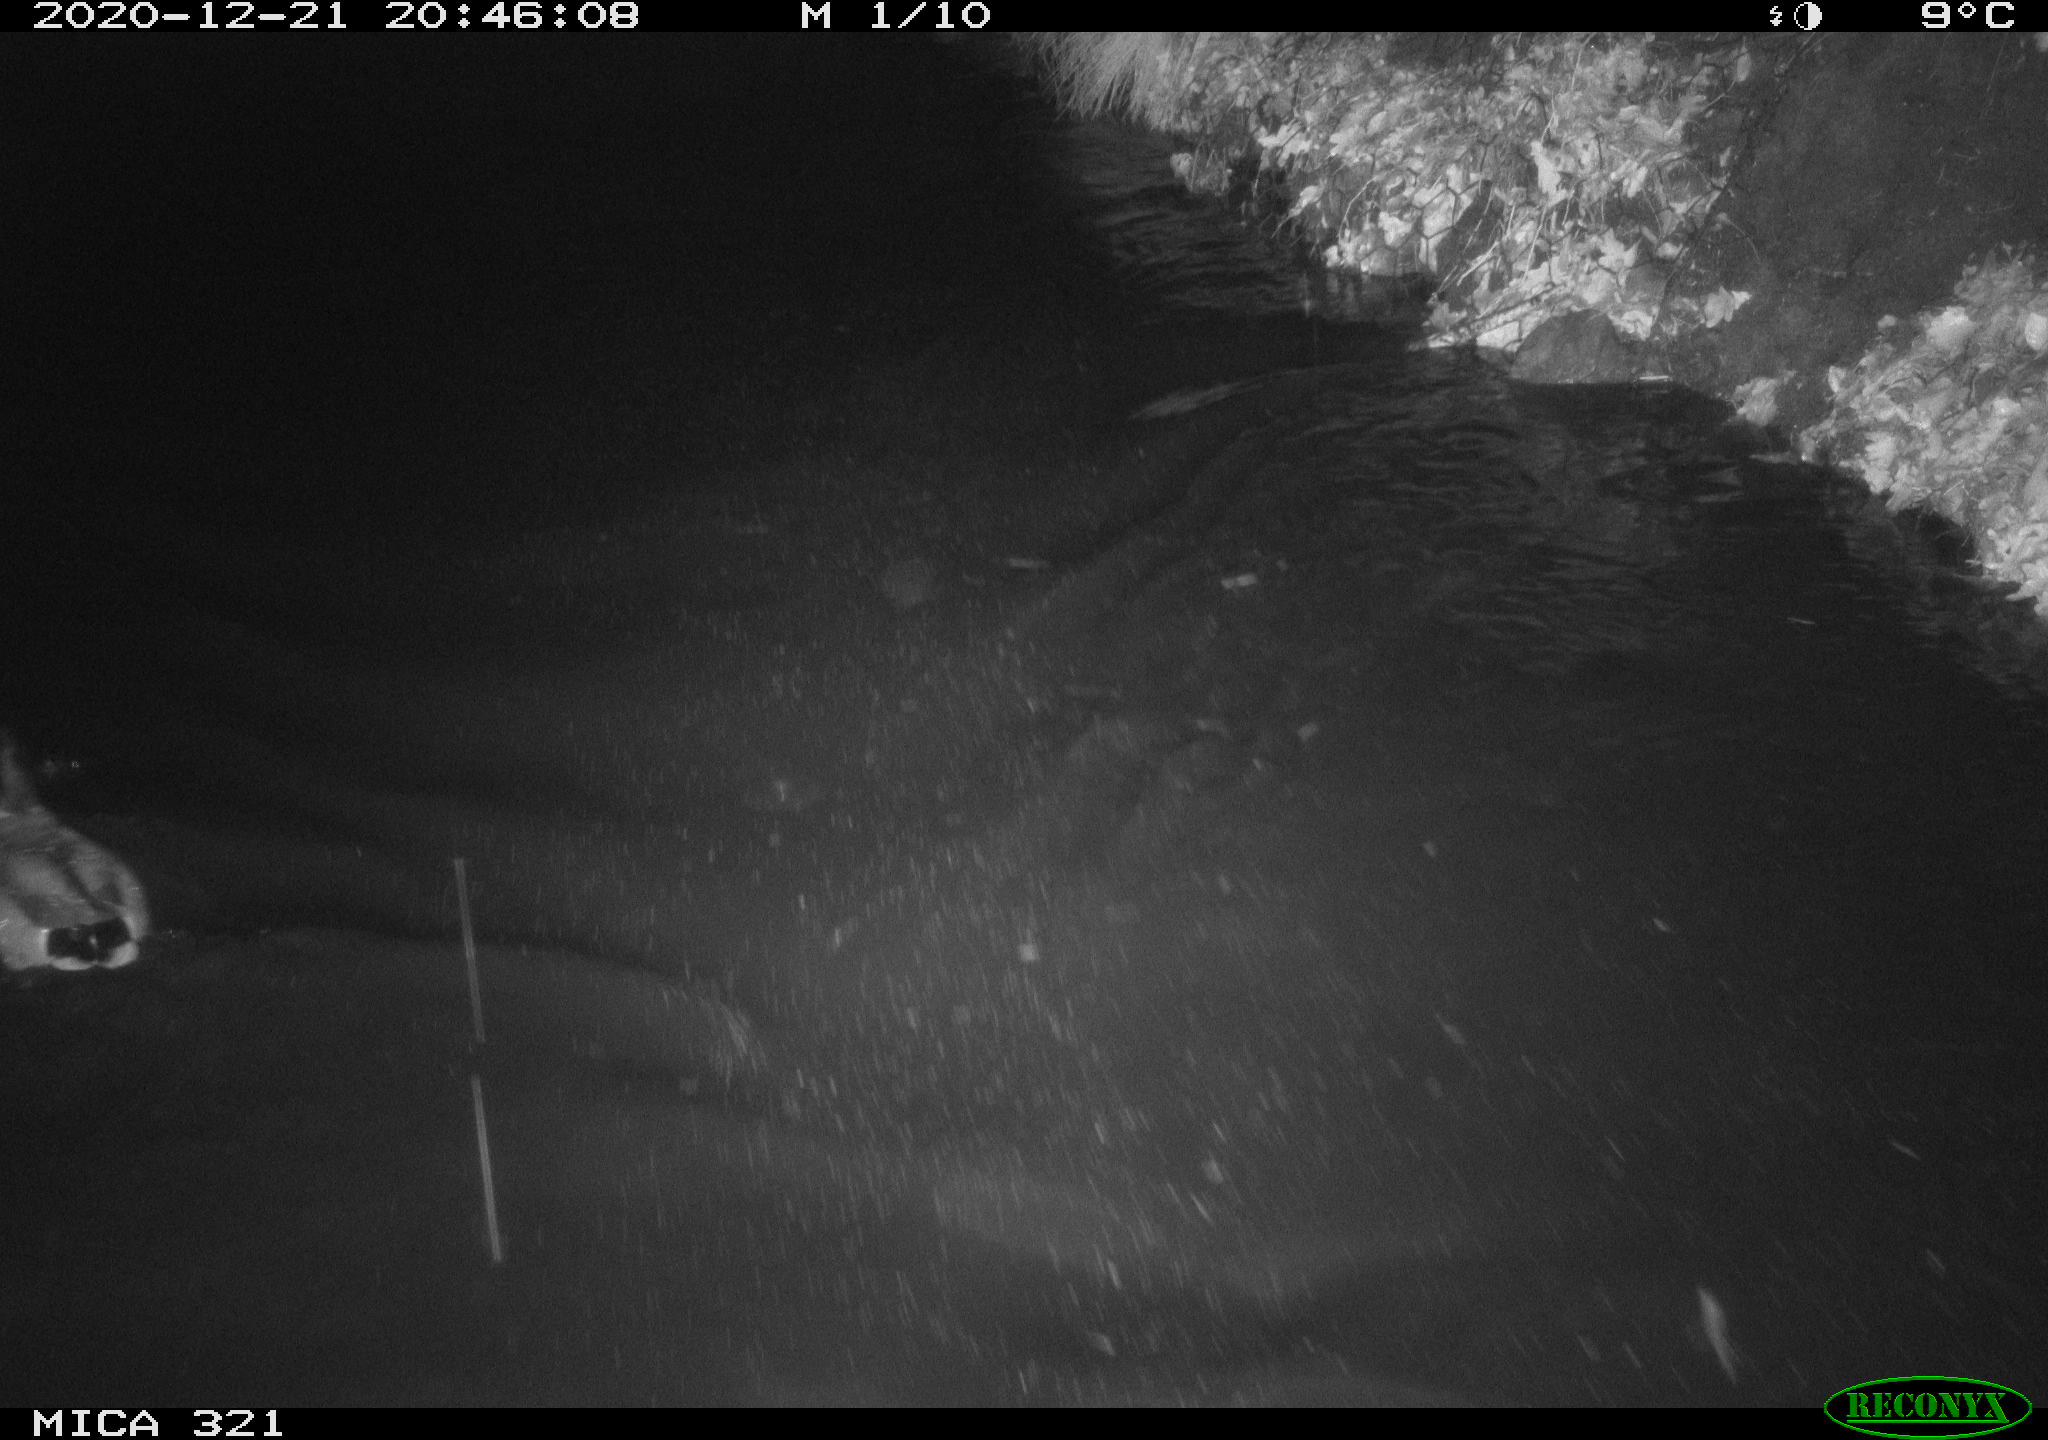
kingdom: Animalia
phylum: Chordata
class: Aves
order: Anseriformes
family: Anatidae
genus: Anas
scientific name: Anas platyrhynchos
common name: Mallard
